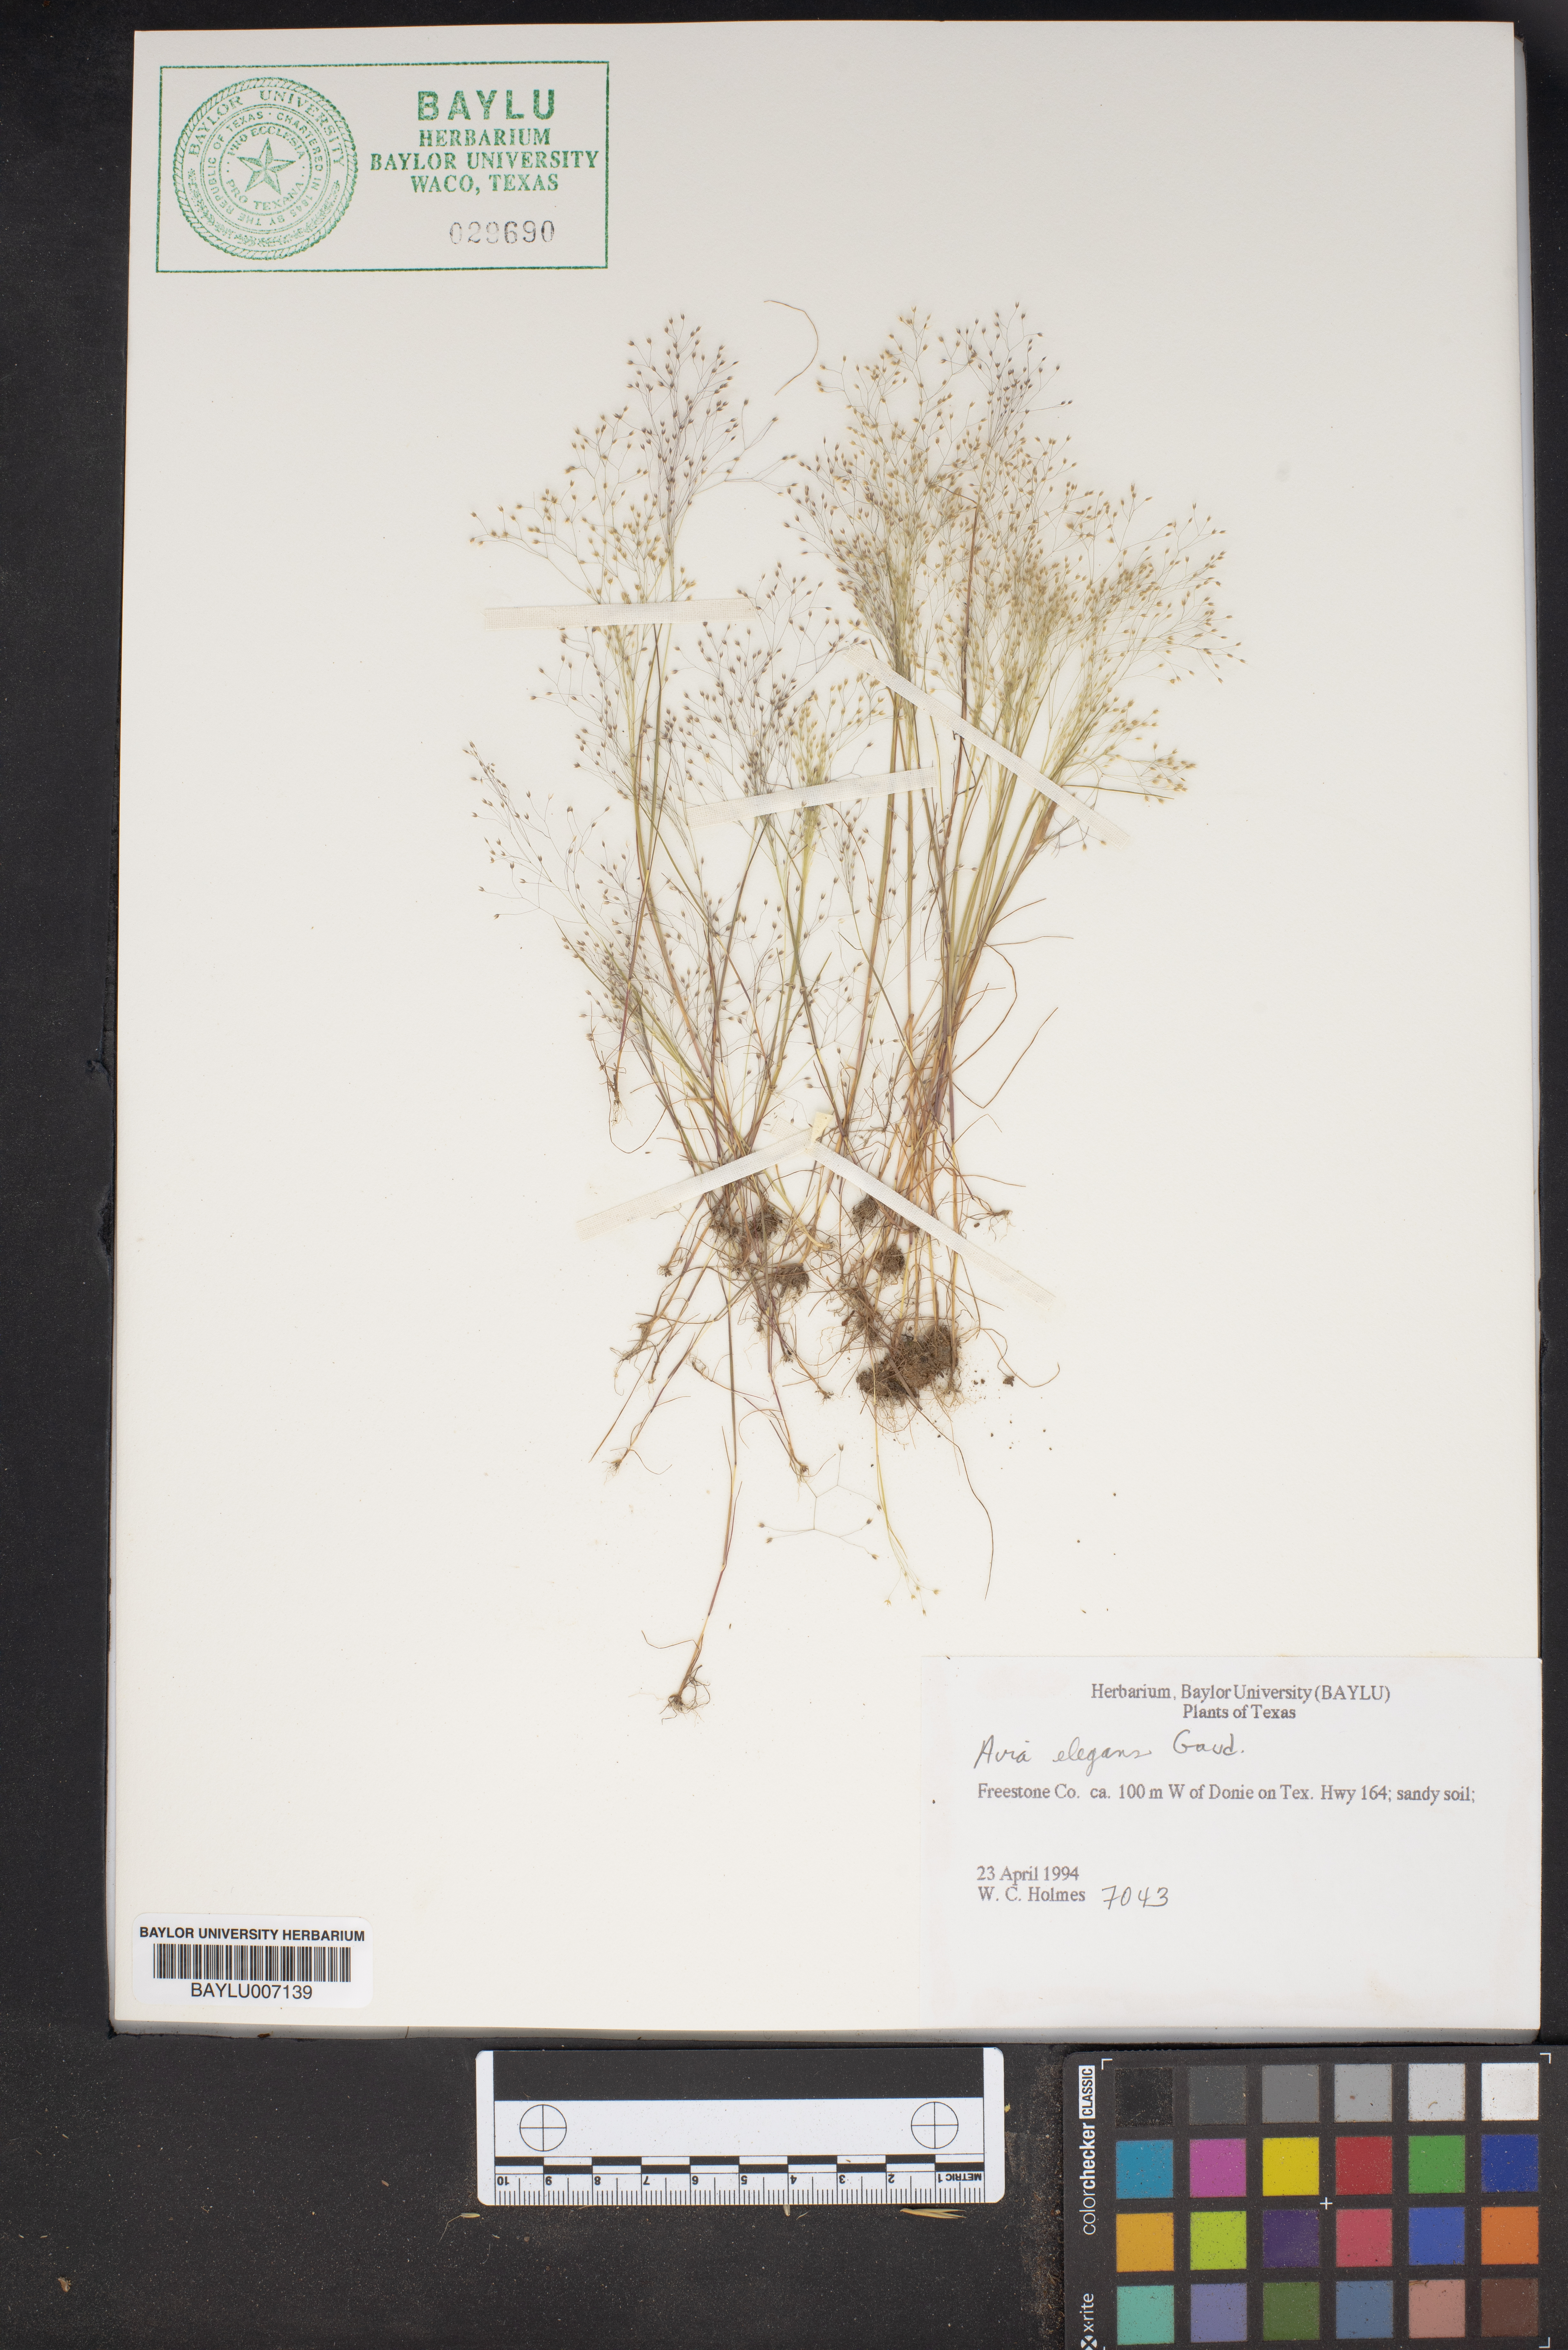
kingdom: Plantae
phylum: Tracheophyta
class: Liliopsida
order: Poales
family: Poaceae
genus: Aira
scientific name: Aira elegans
